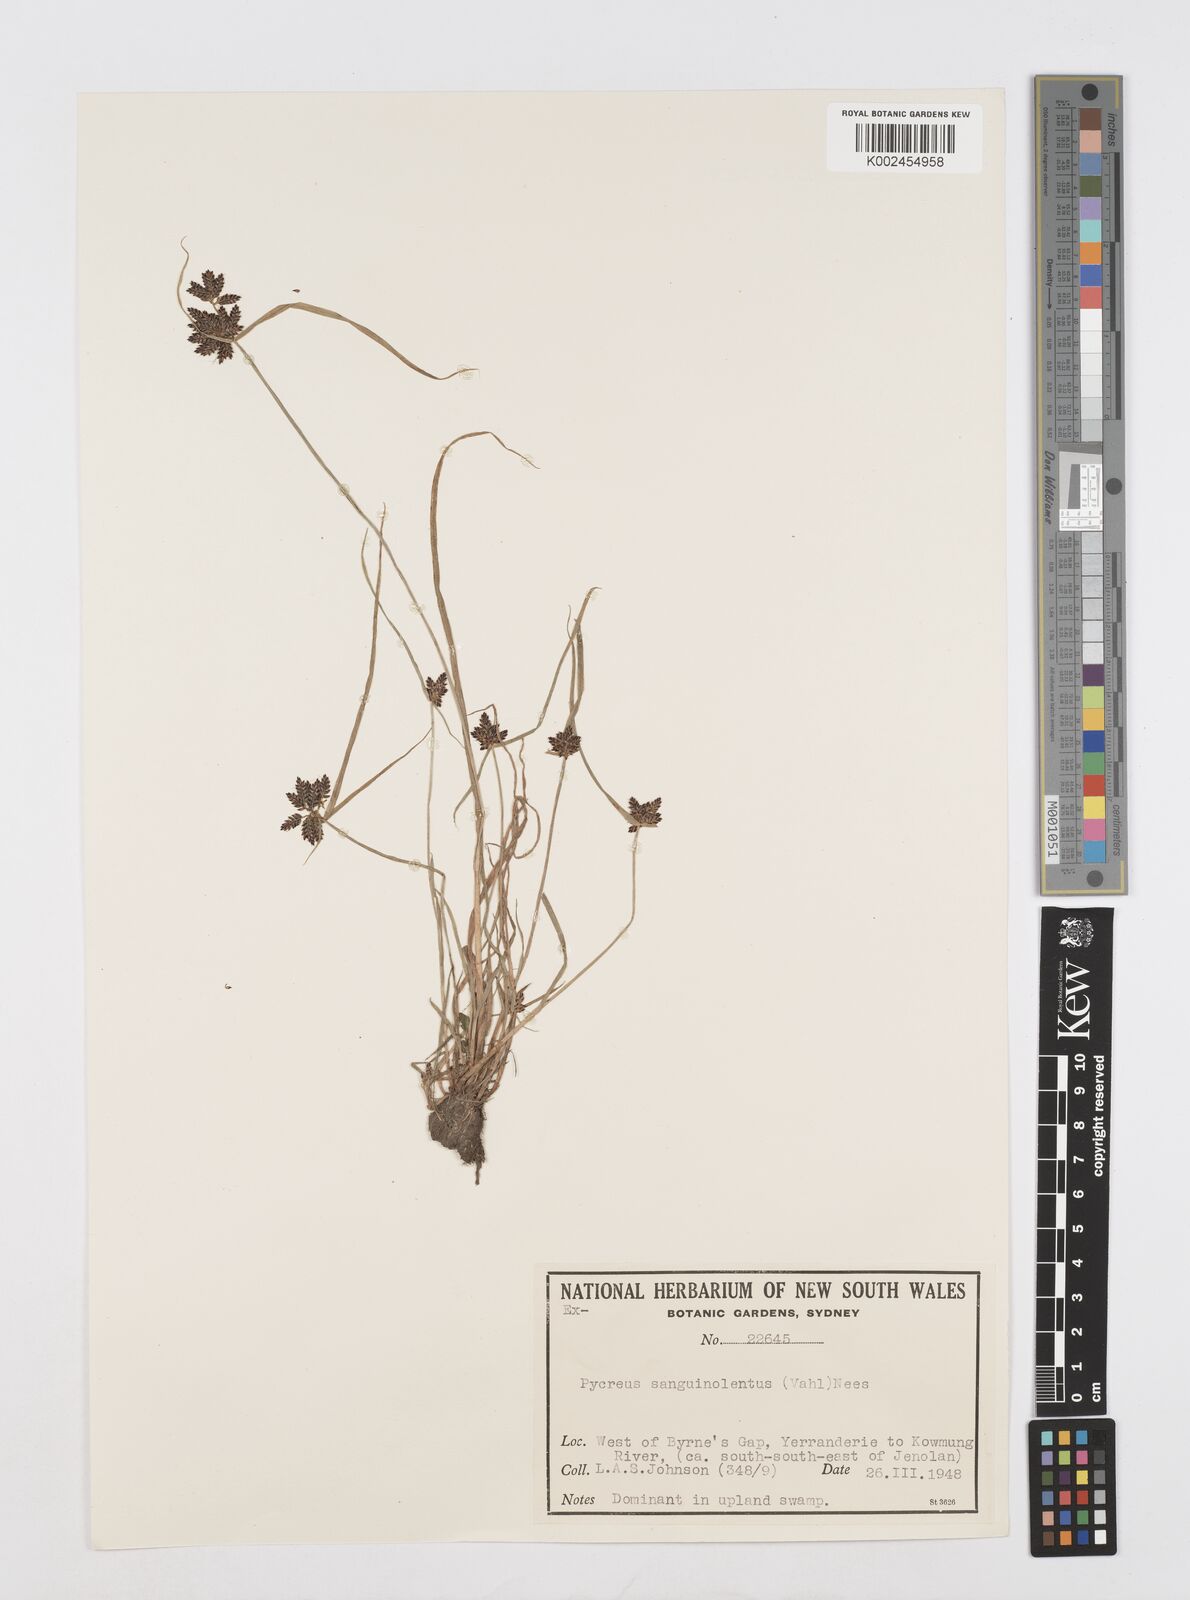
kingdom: Plantae
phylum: Tracheophyta
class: Liliopsida
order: Poales
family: Cyperaceae
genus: Cyperus
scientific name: Cyperus sanguinolentus
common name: Purpleglume flatsedge
